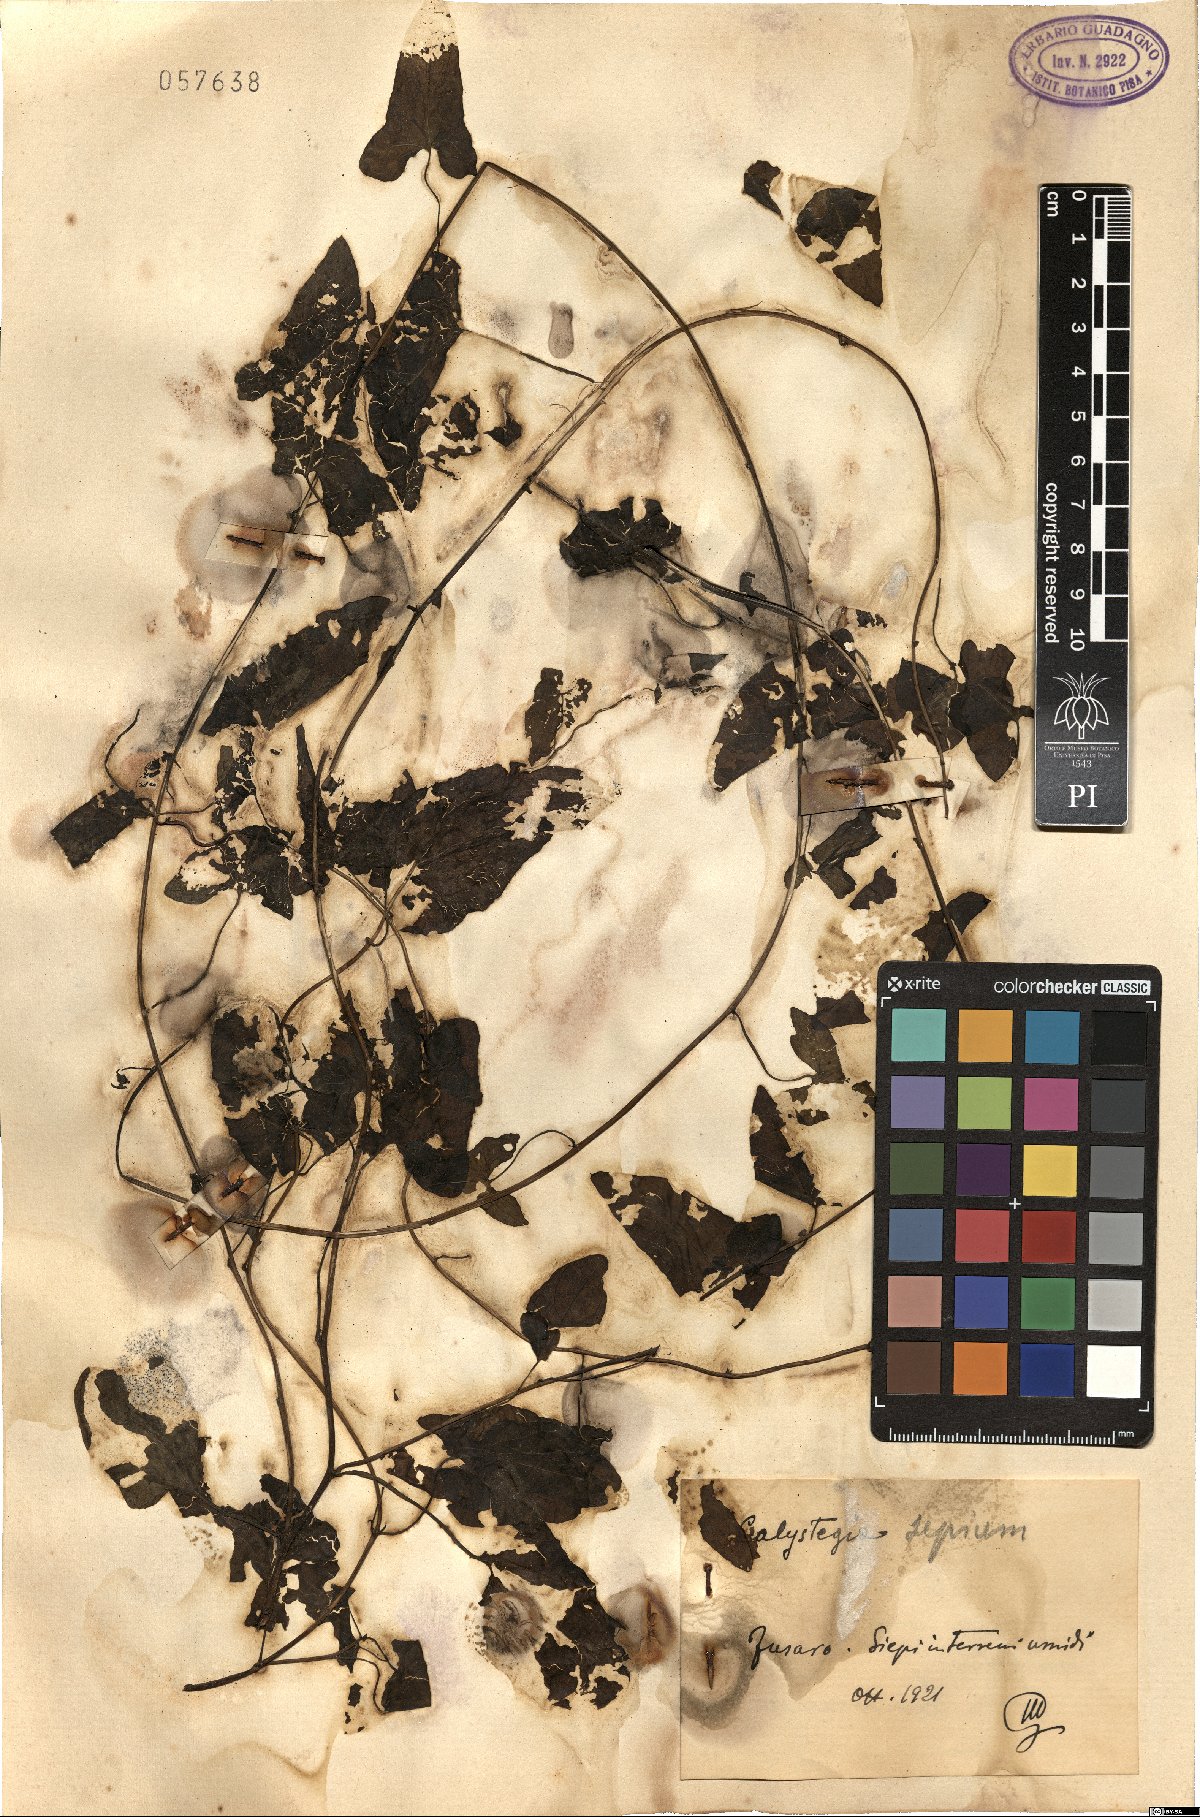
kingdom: Plantae
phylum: Tracheophyta
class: Magnoliopsida
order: Solanales
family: Convolvulaceae
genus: Calystegia
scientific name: Calystegia sepium
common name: Hedge bindweed
